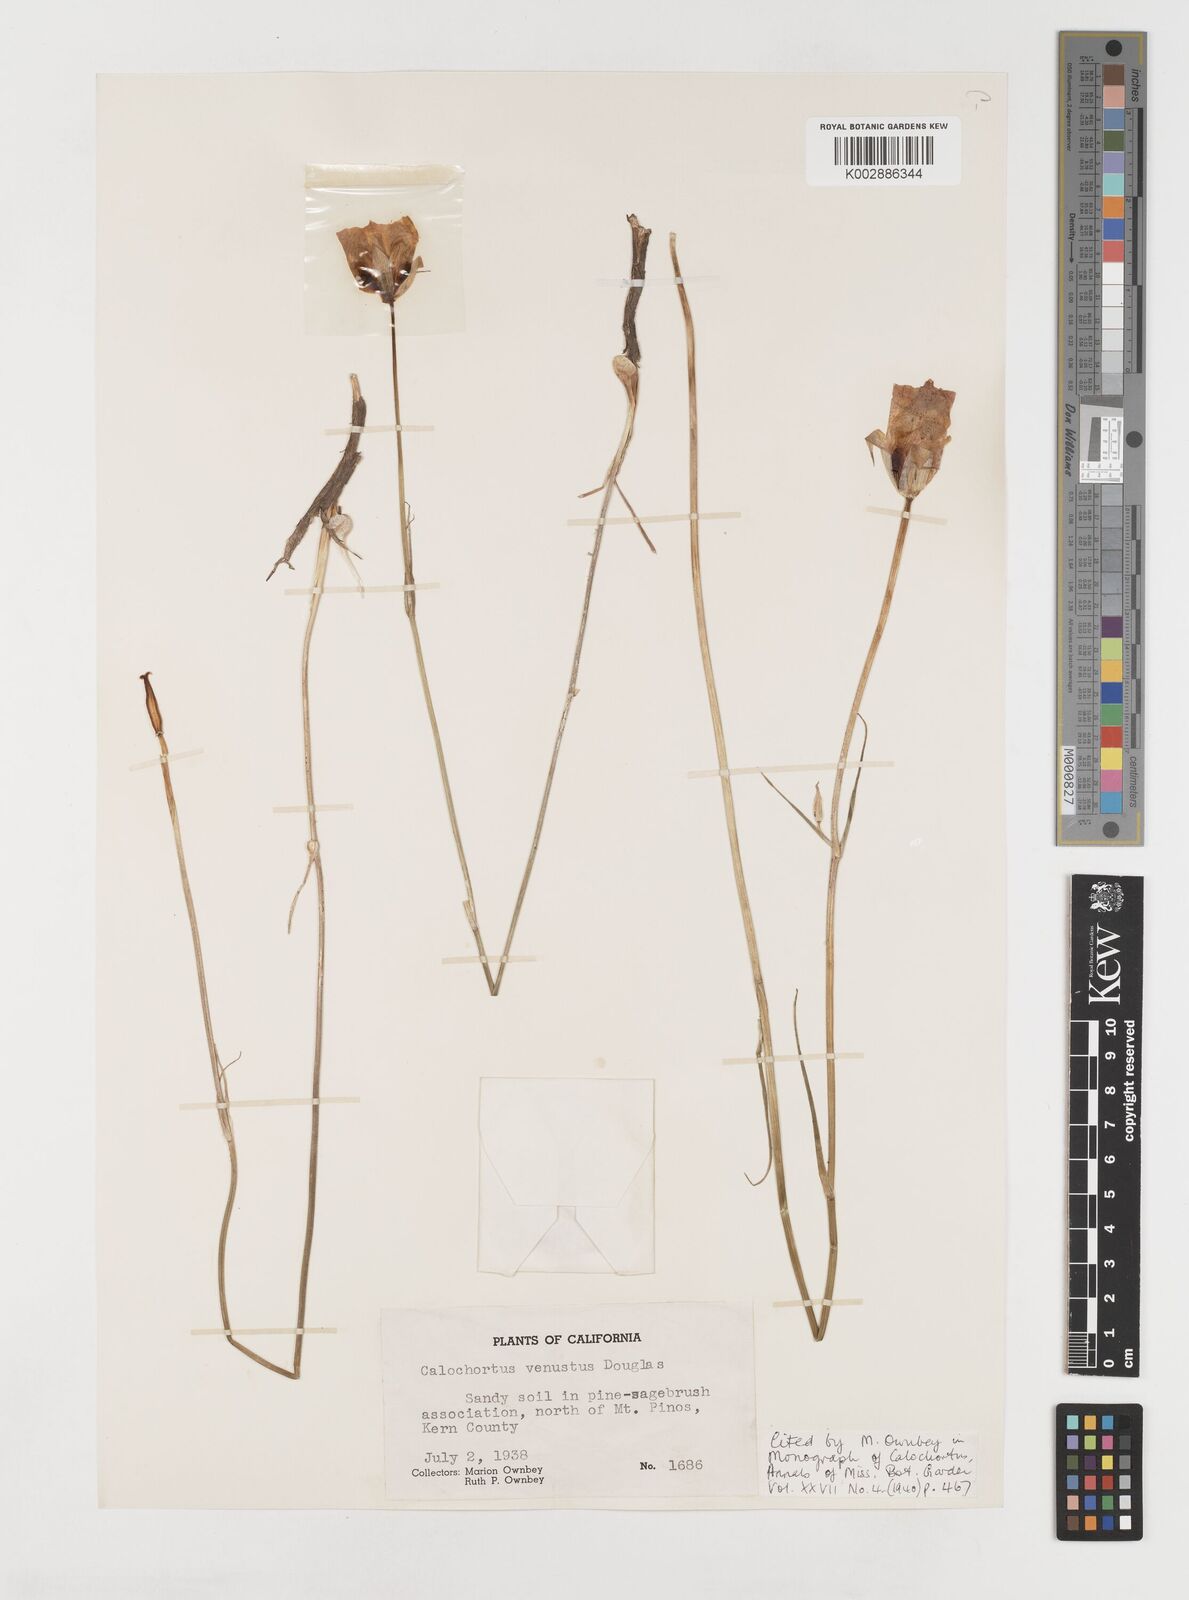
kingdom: Plantae
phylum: Tracheophyta
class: Liliopsida
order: Liliales
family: Liliaceae
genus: Calochortus
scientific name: Calochortus venustus
